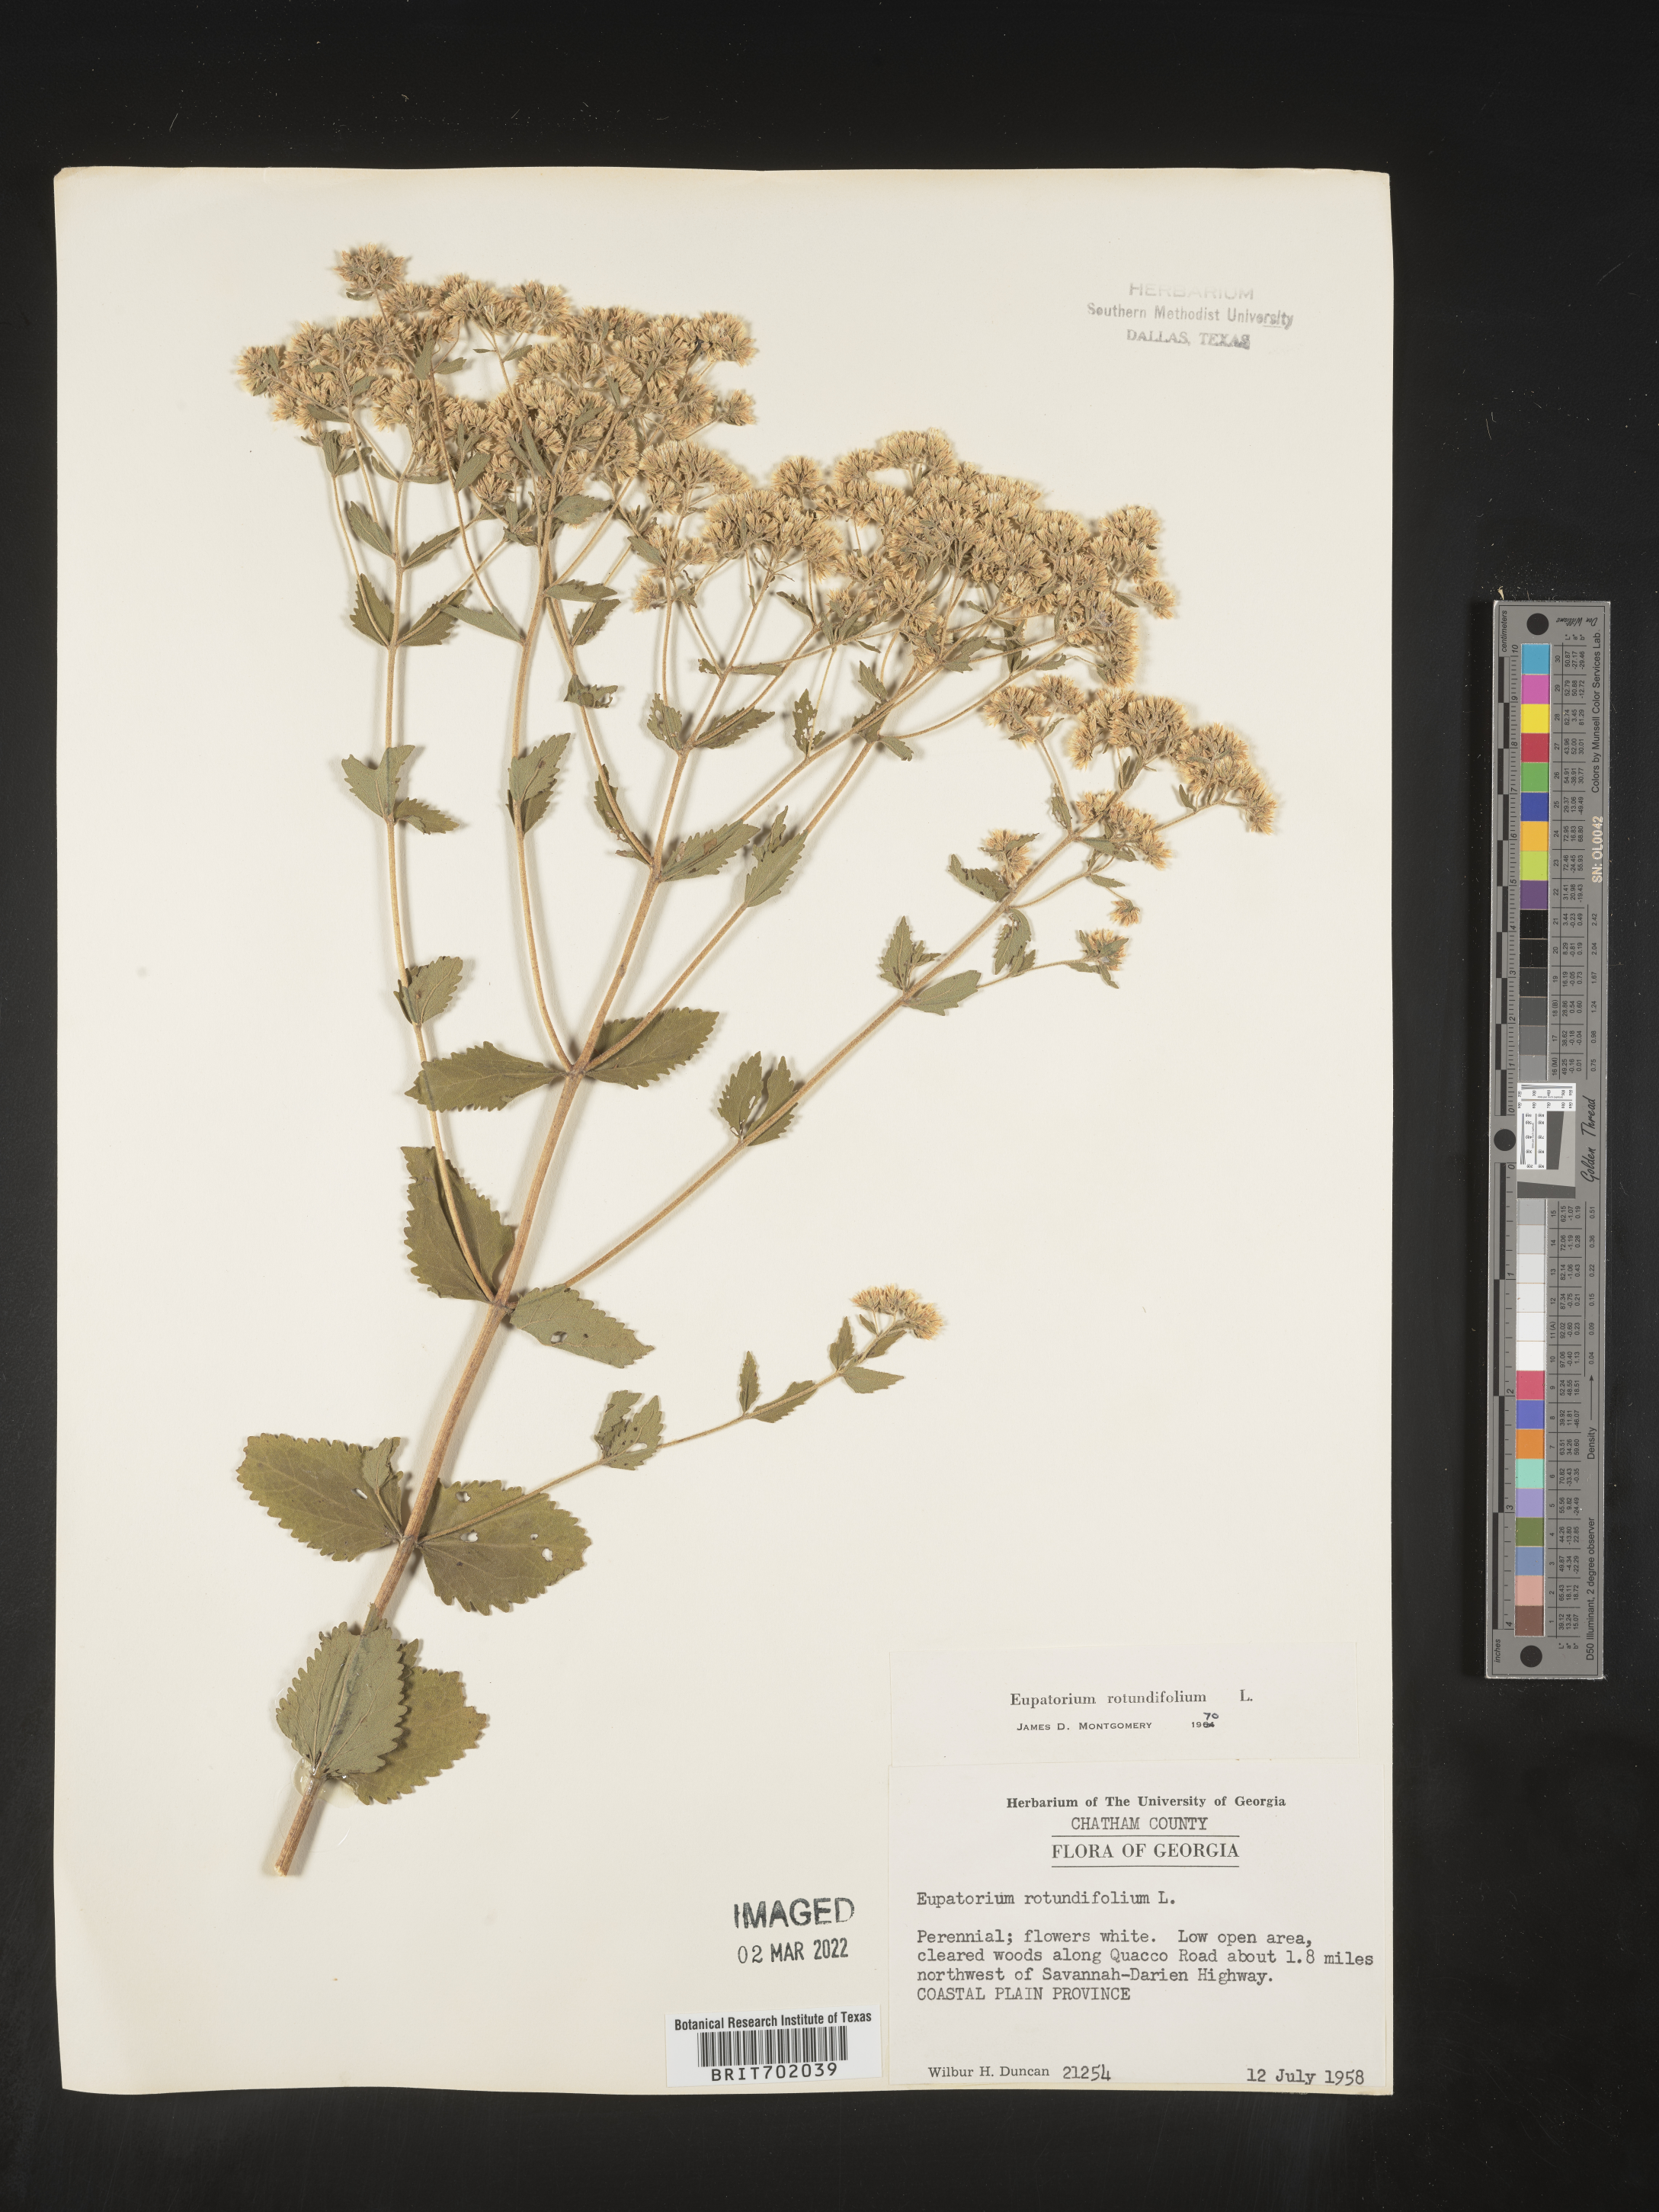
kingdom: Plantae
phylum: Tracheophyta
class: Magnoliopsida
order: Asterales
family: Asteraceae
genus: Eupatorium
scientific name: Eupatorium rotundifolium
